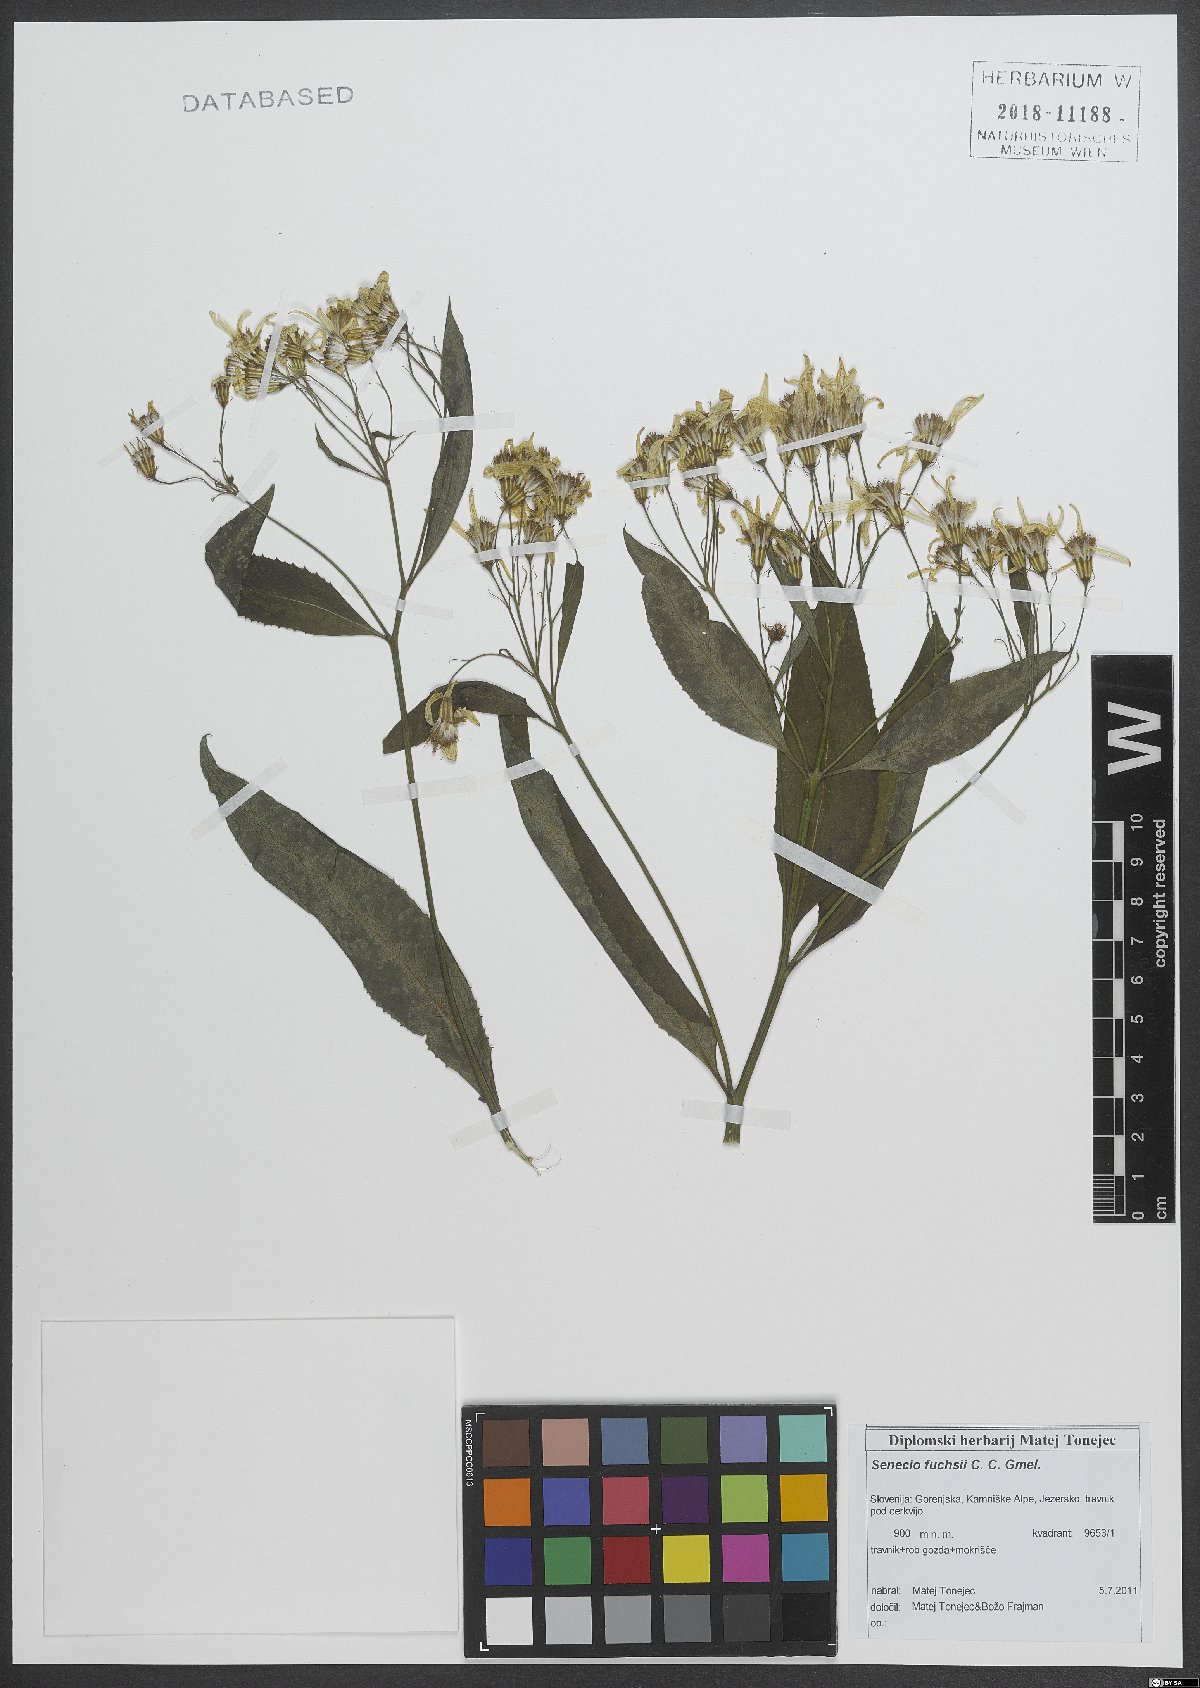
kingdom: Plantae
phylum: Tracheophyta
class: Magnoliopsida
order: Asterales
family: Asteraceae
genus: Senecio
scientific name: Senecio ovatus
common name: Wood ragwort
